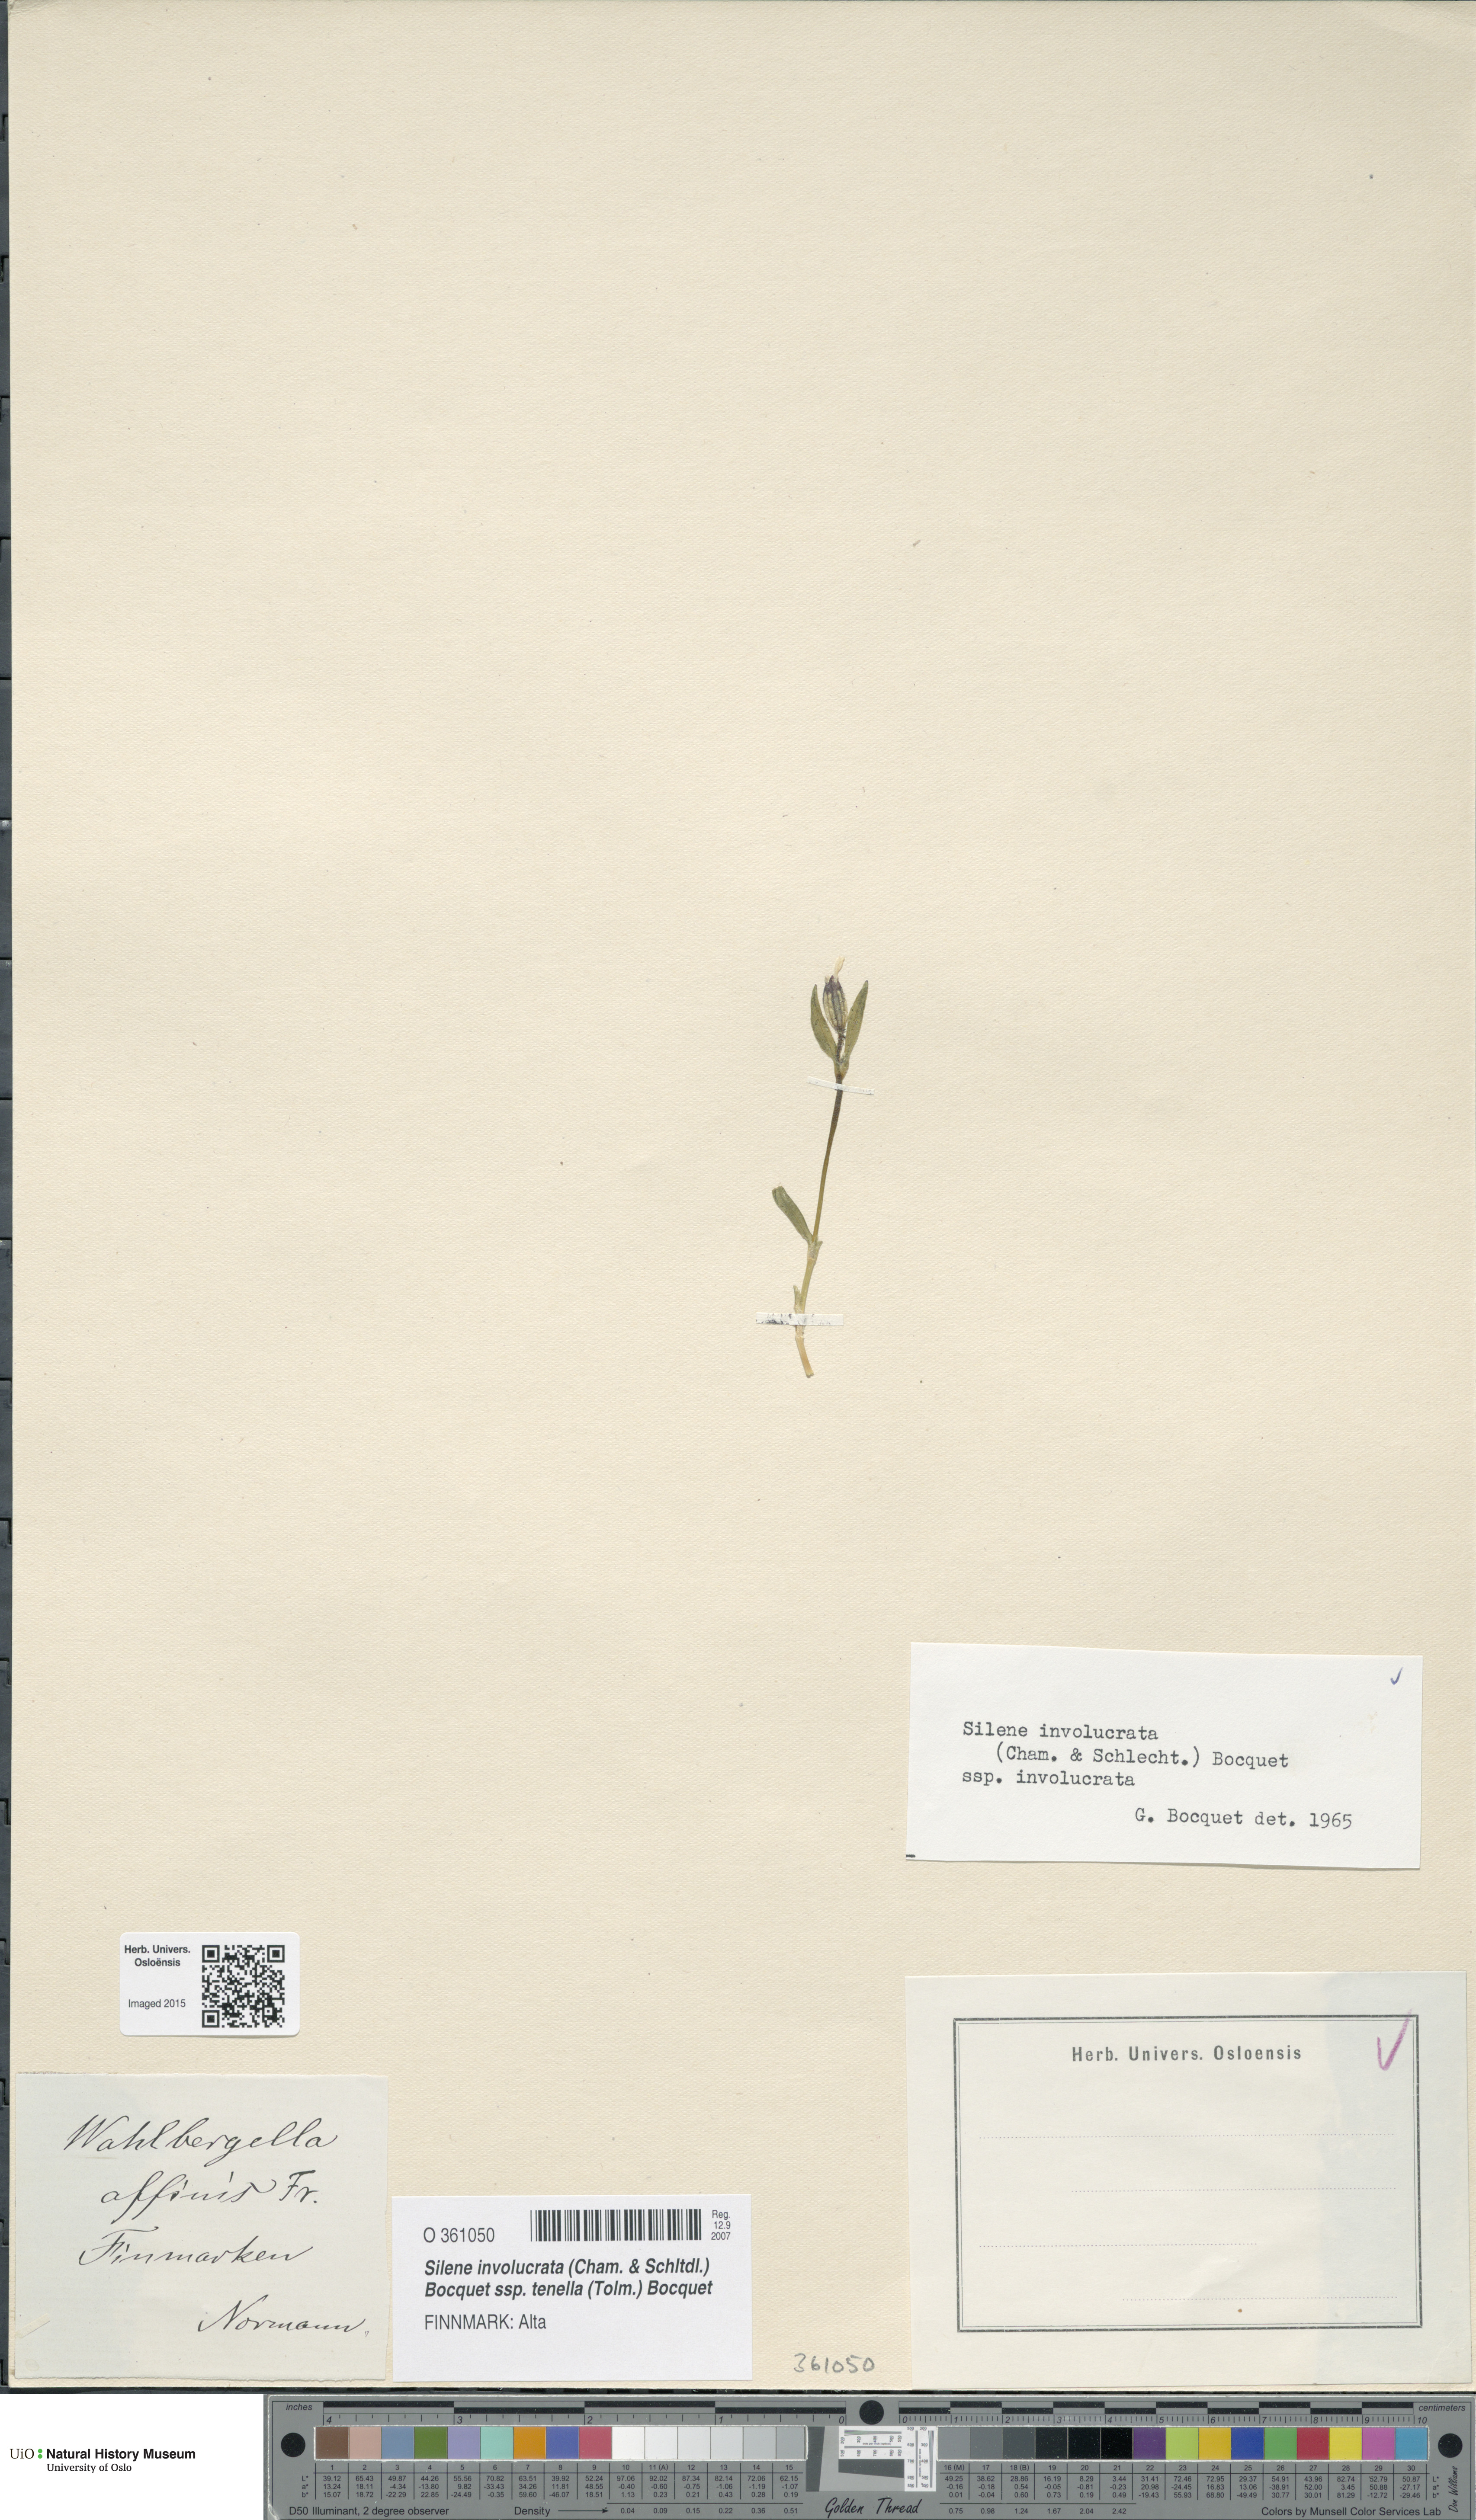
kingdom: Plantae
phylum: Tracheophyta
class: Magnoliopsida
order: Caryophyllales
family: Caryophyllaceae
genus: Silene
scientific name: Silene involucrata
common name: Greater arctic campion
